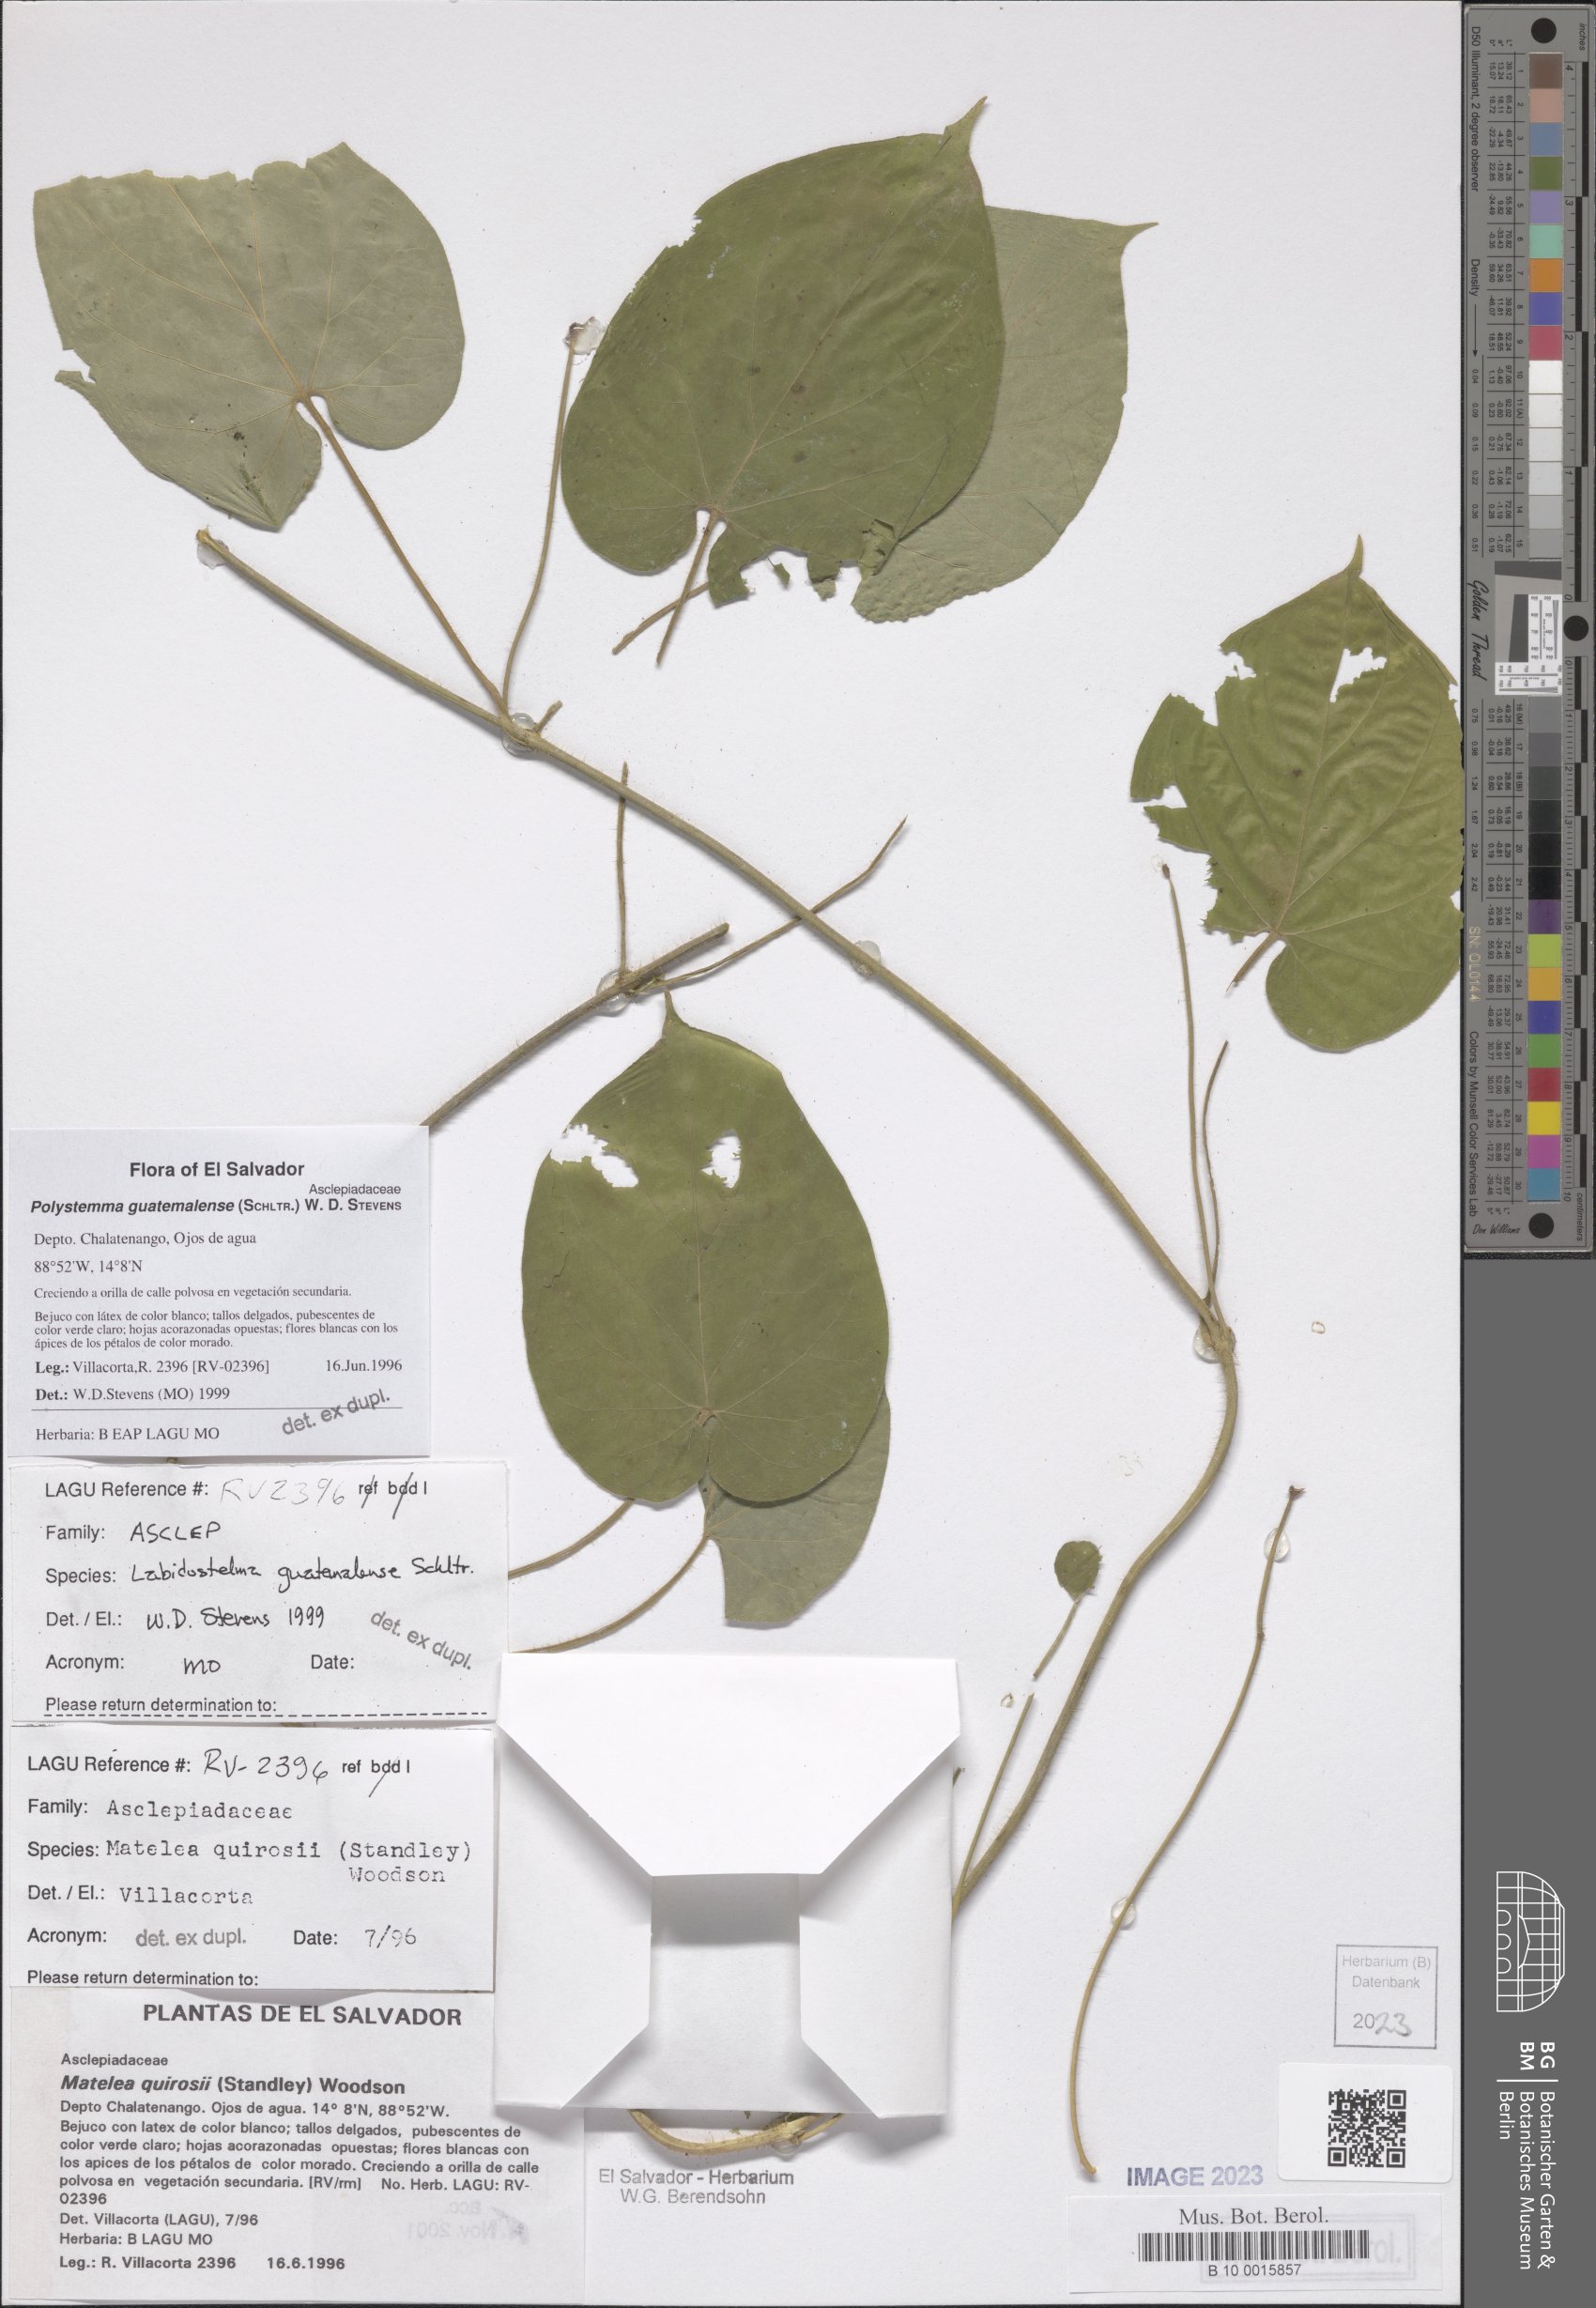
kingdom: Plantae
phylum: Tracheophyta
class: Magnoliopsida
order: Gentianales
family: Apocynaceae
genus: Polystemma
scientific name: Polystemma guatemalense
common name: Arborescente rattan
